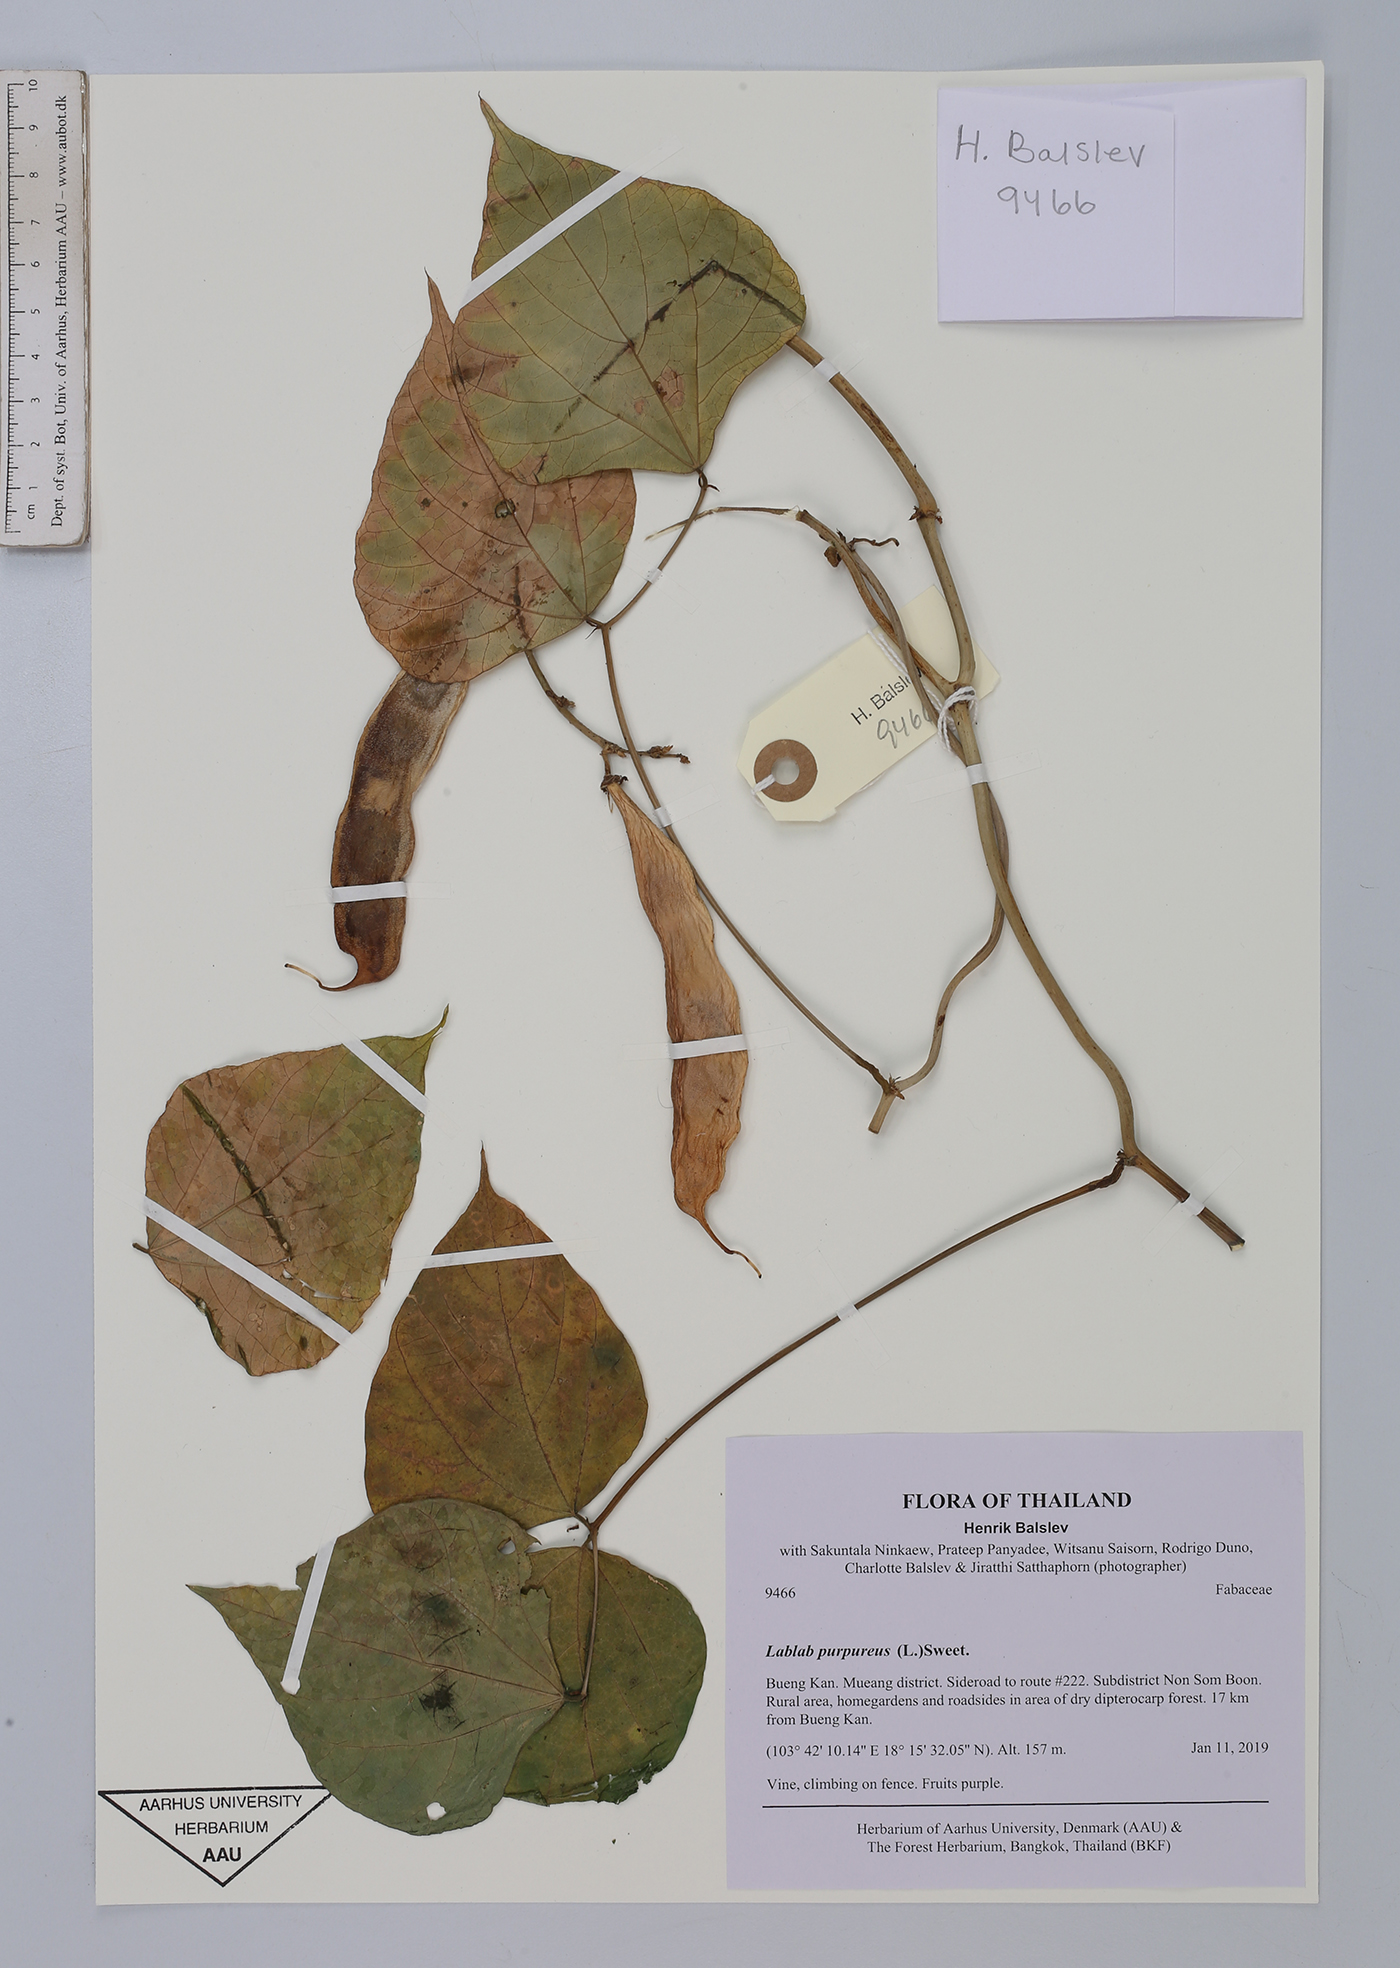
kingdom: Plantae
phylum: Tracheophyta
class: Magnoliopsida
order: Fabales
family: Fabaceae
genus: Lablab
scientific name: Lablab purpureus
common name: Lablab-bean
